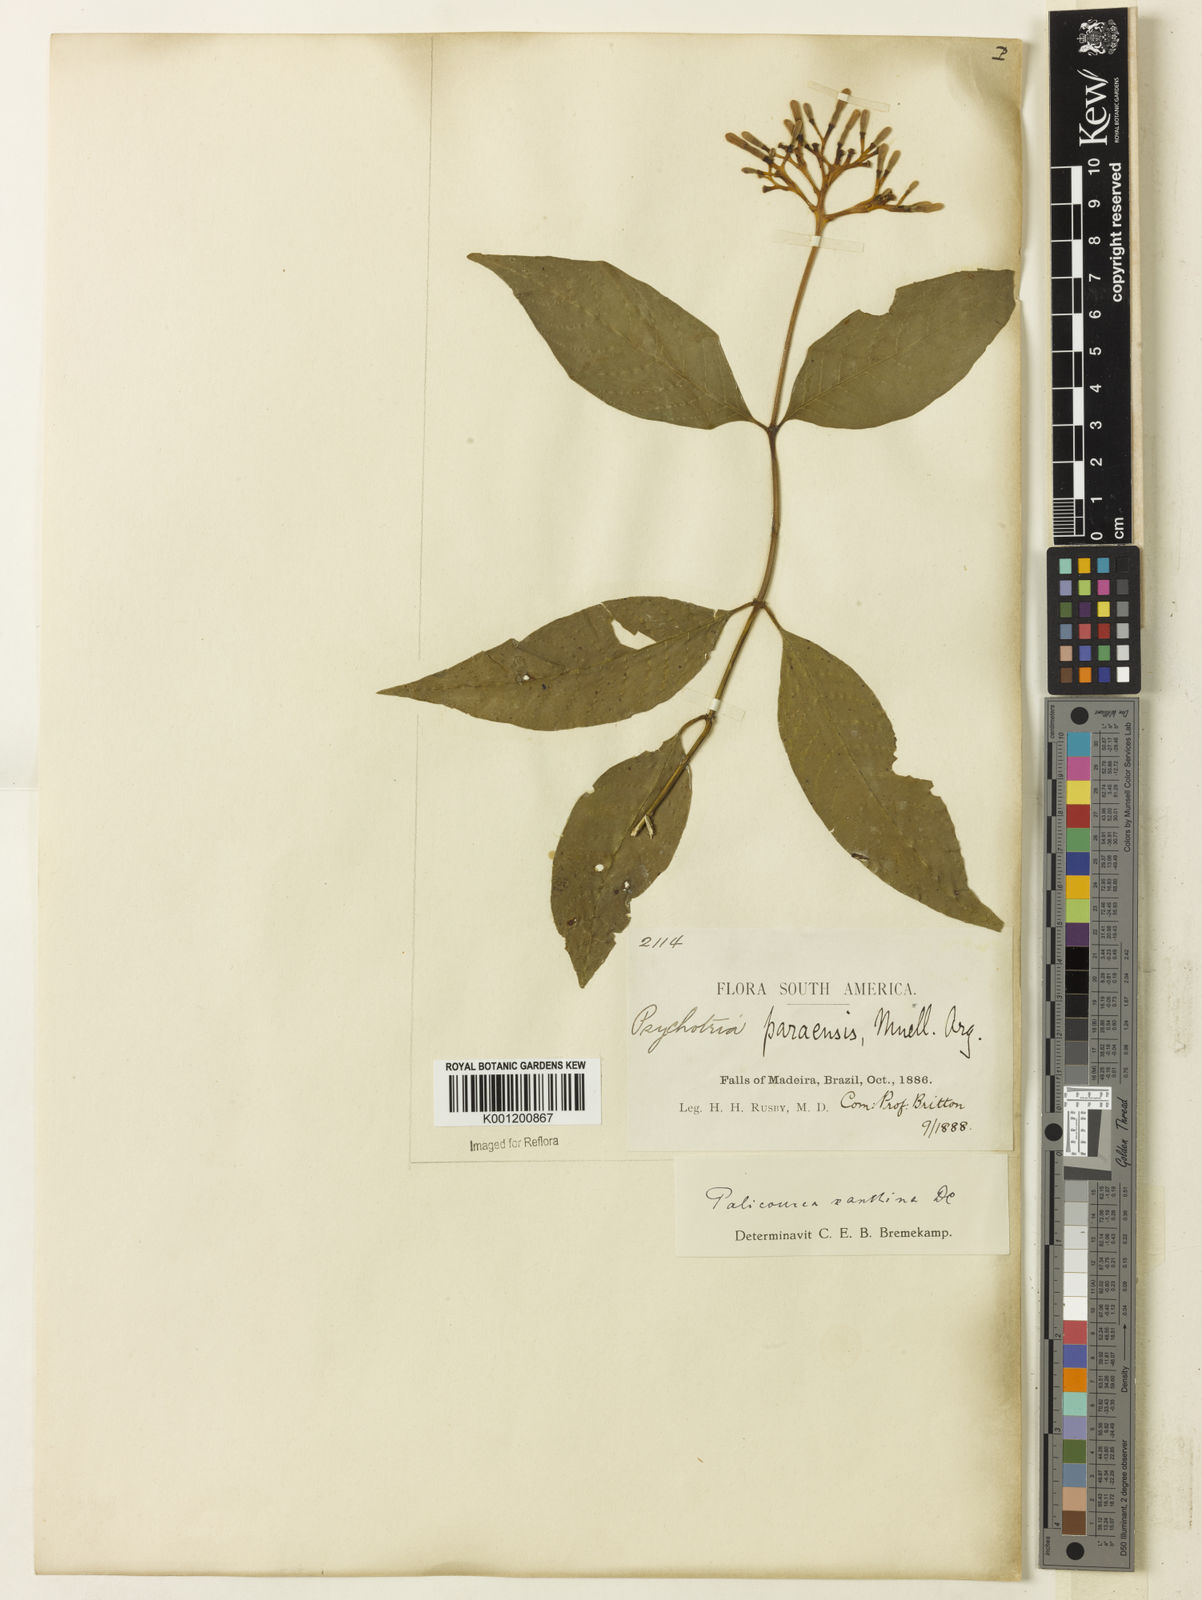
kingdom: Plantae
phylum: Tracheophyta
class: Magnoliopsida
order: Gentianales
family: Rubiaceae
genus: Palicourea
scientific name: Palicourea longiflora
